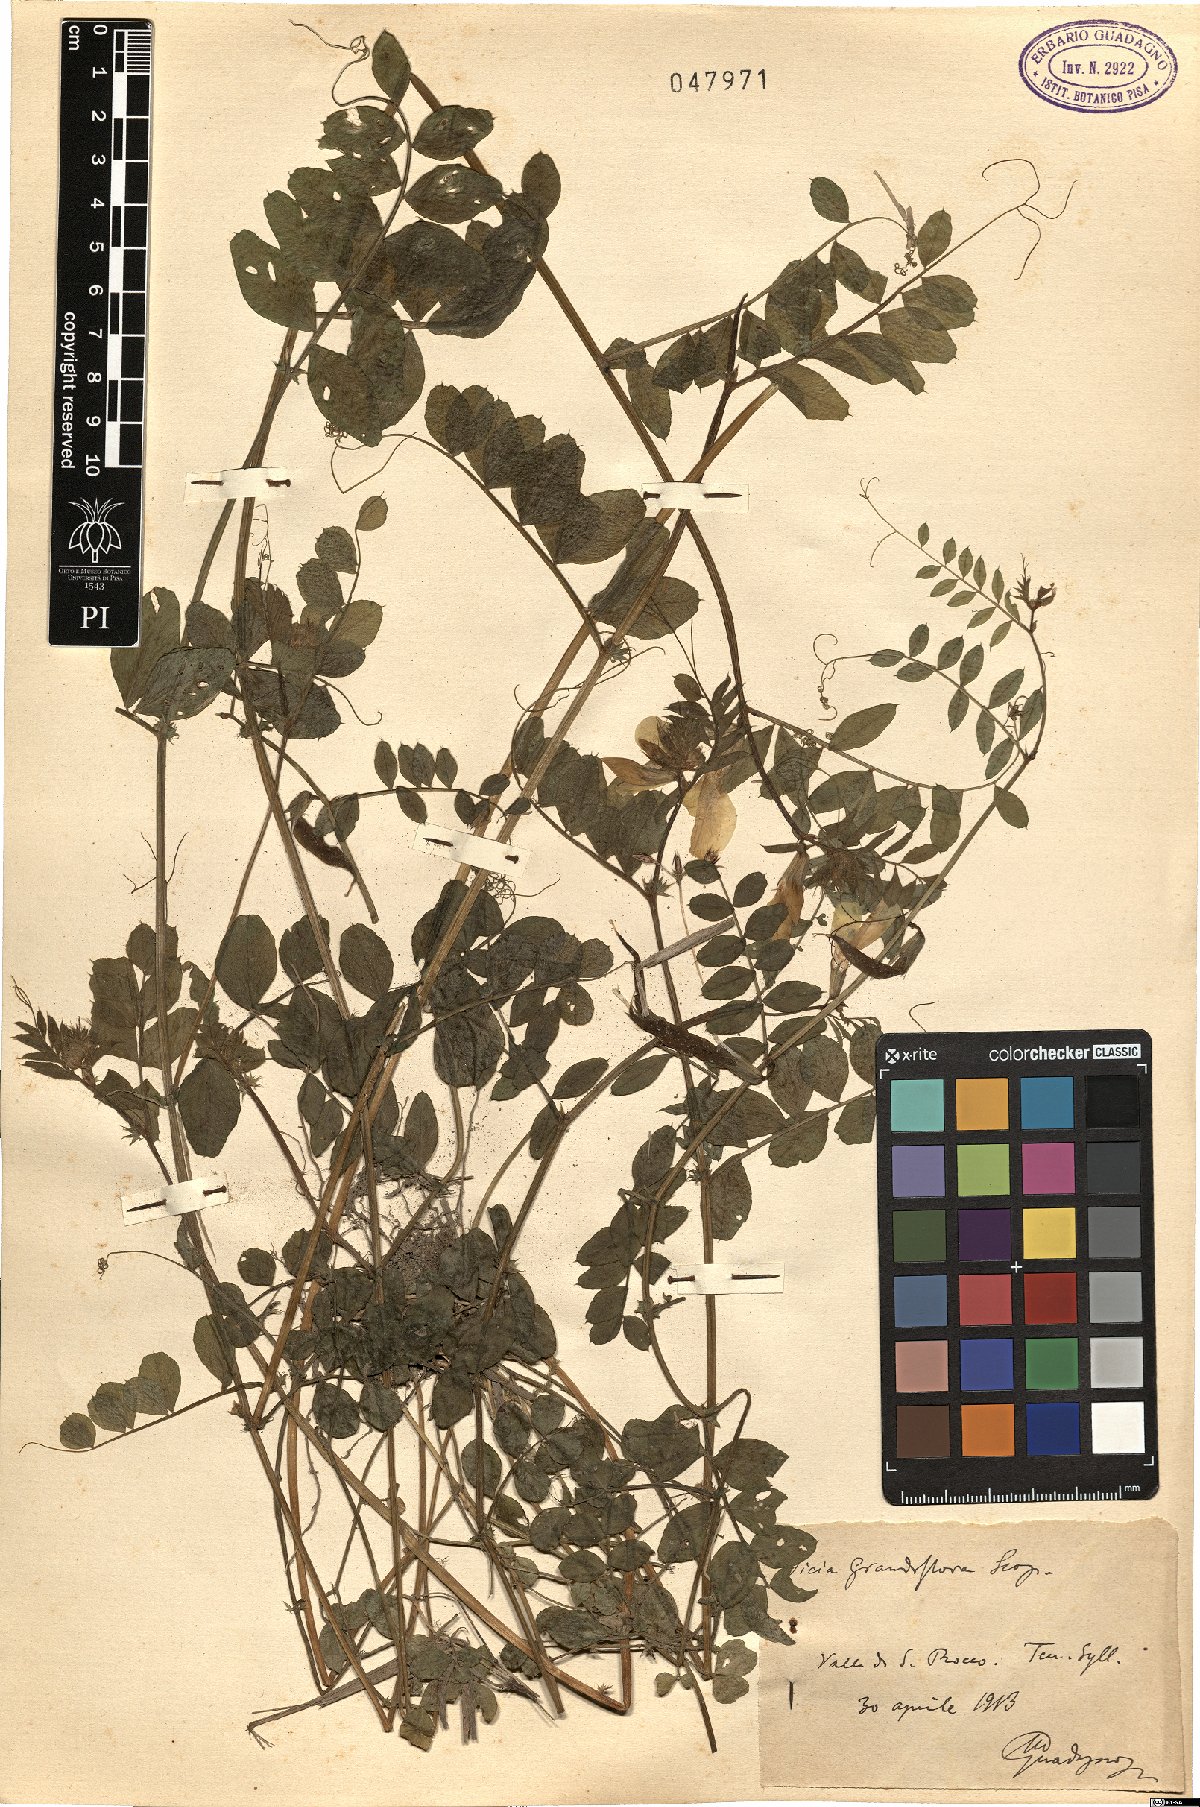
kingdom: Plantae
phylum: Tracheophyta
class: Magnoliopsida
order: Fabales
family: Fabaceae
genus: Vicia
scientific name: Vicia grandiflora
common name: Large yellow vetch
